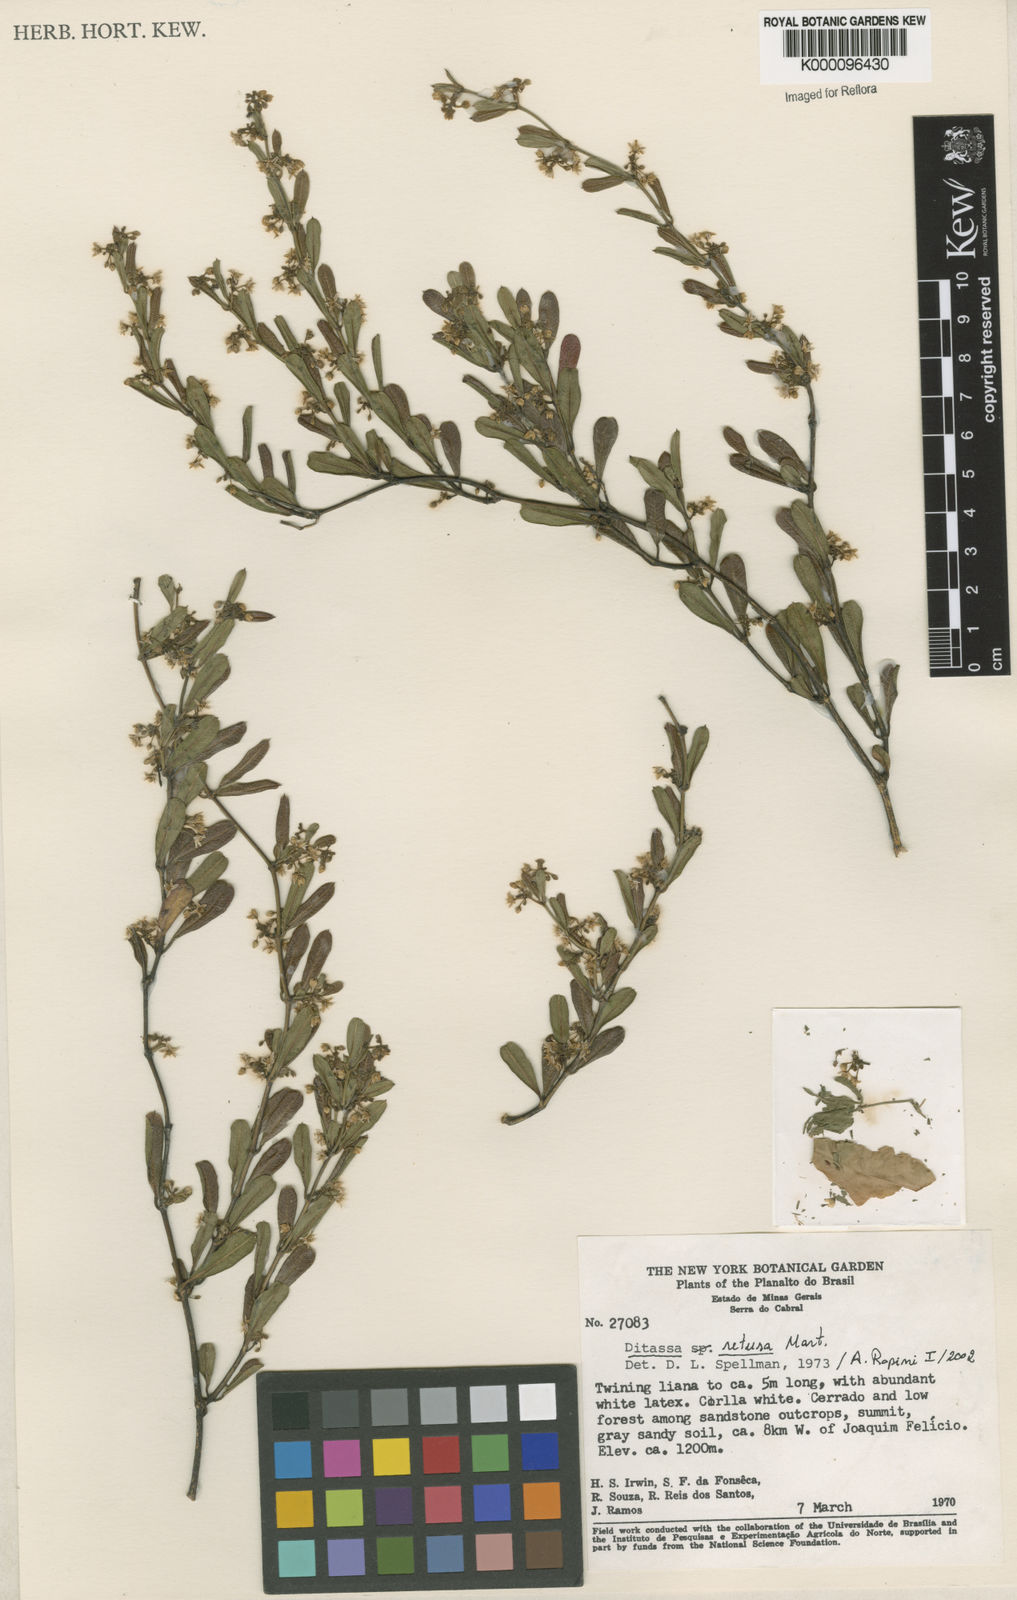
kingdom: Plantae
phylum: Tracheophyta
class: Magnoliopsida
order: Gentianales
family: Apocynaceae
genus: Ditassa
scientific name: Ditassa retusa
